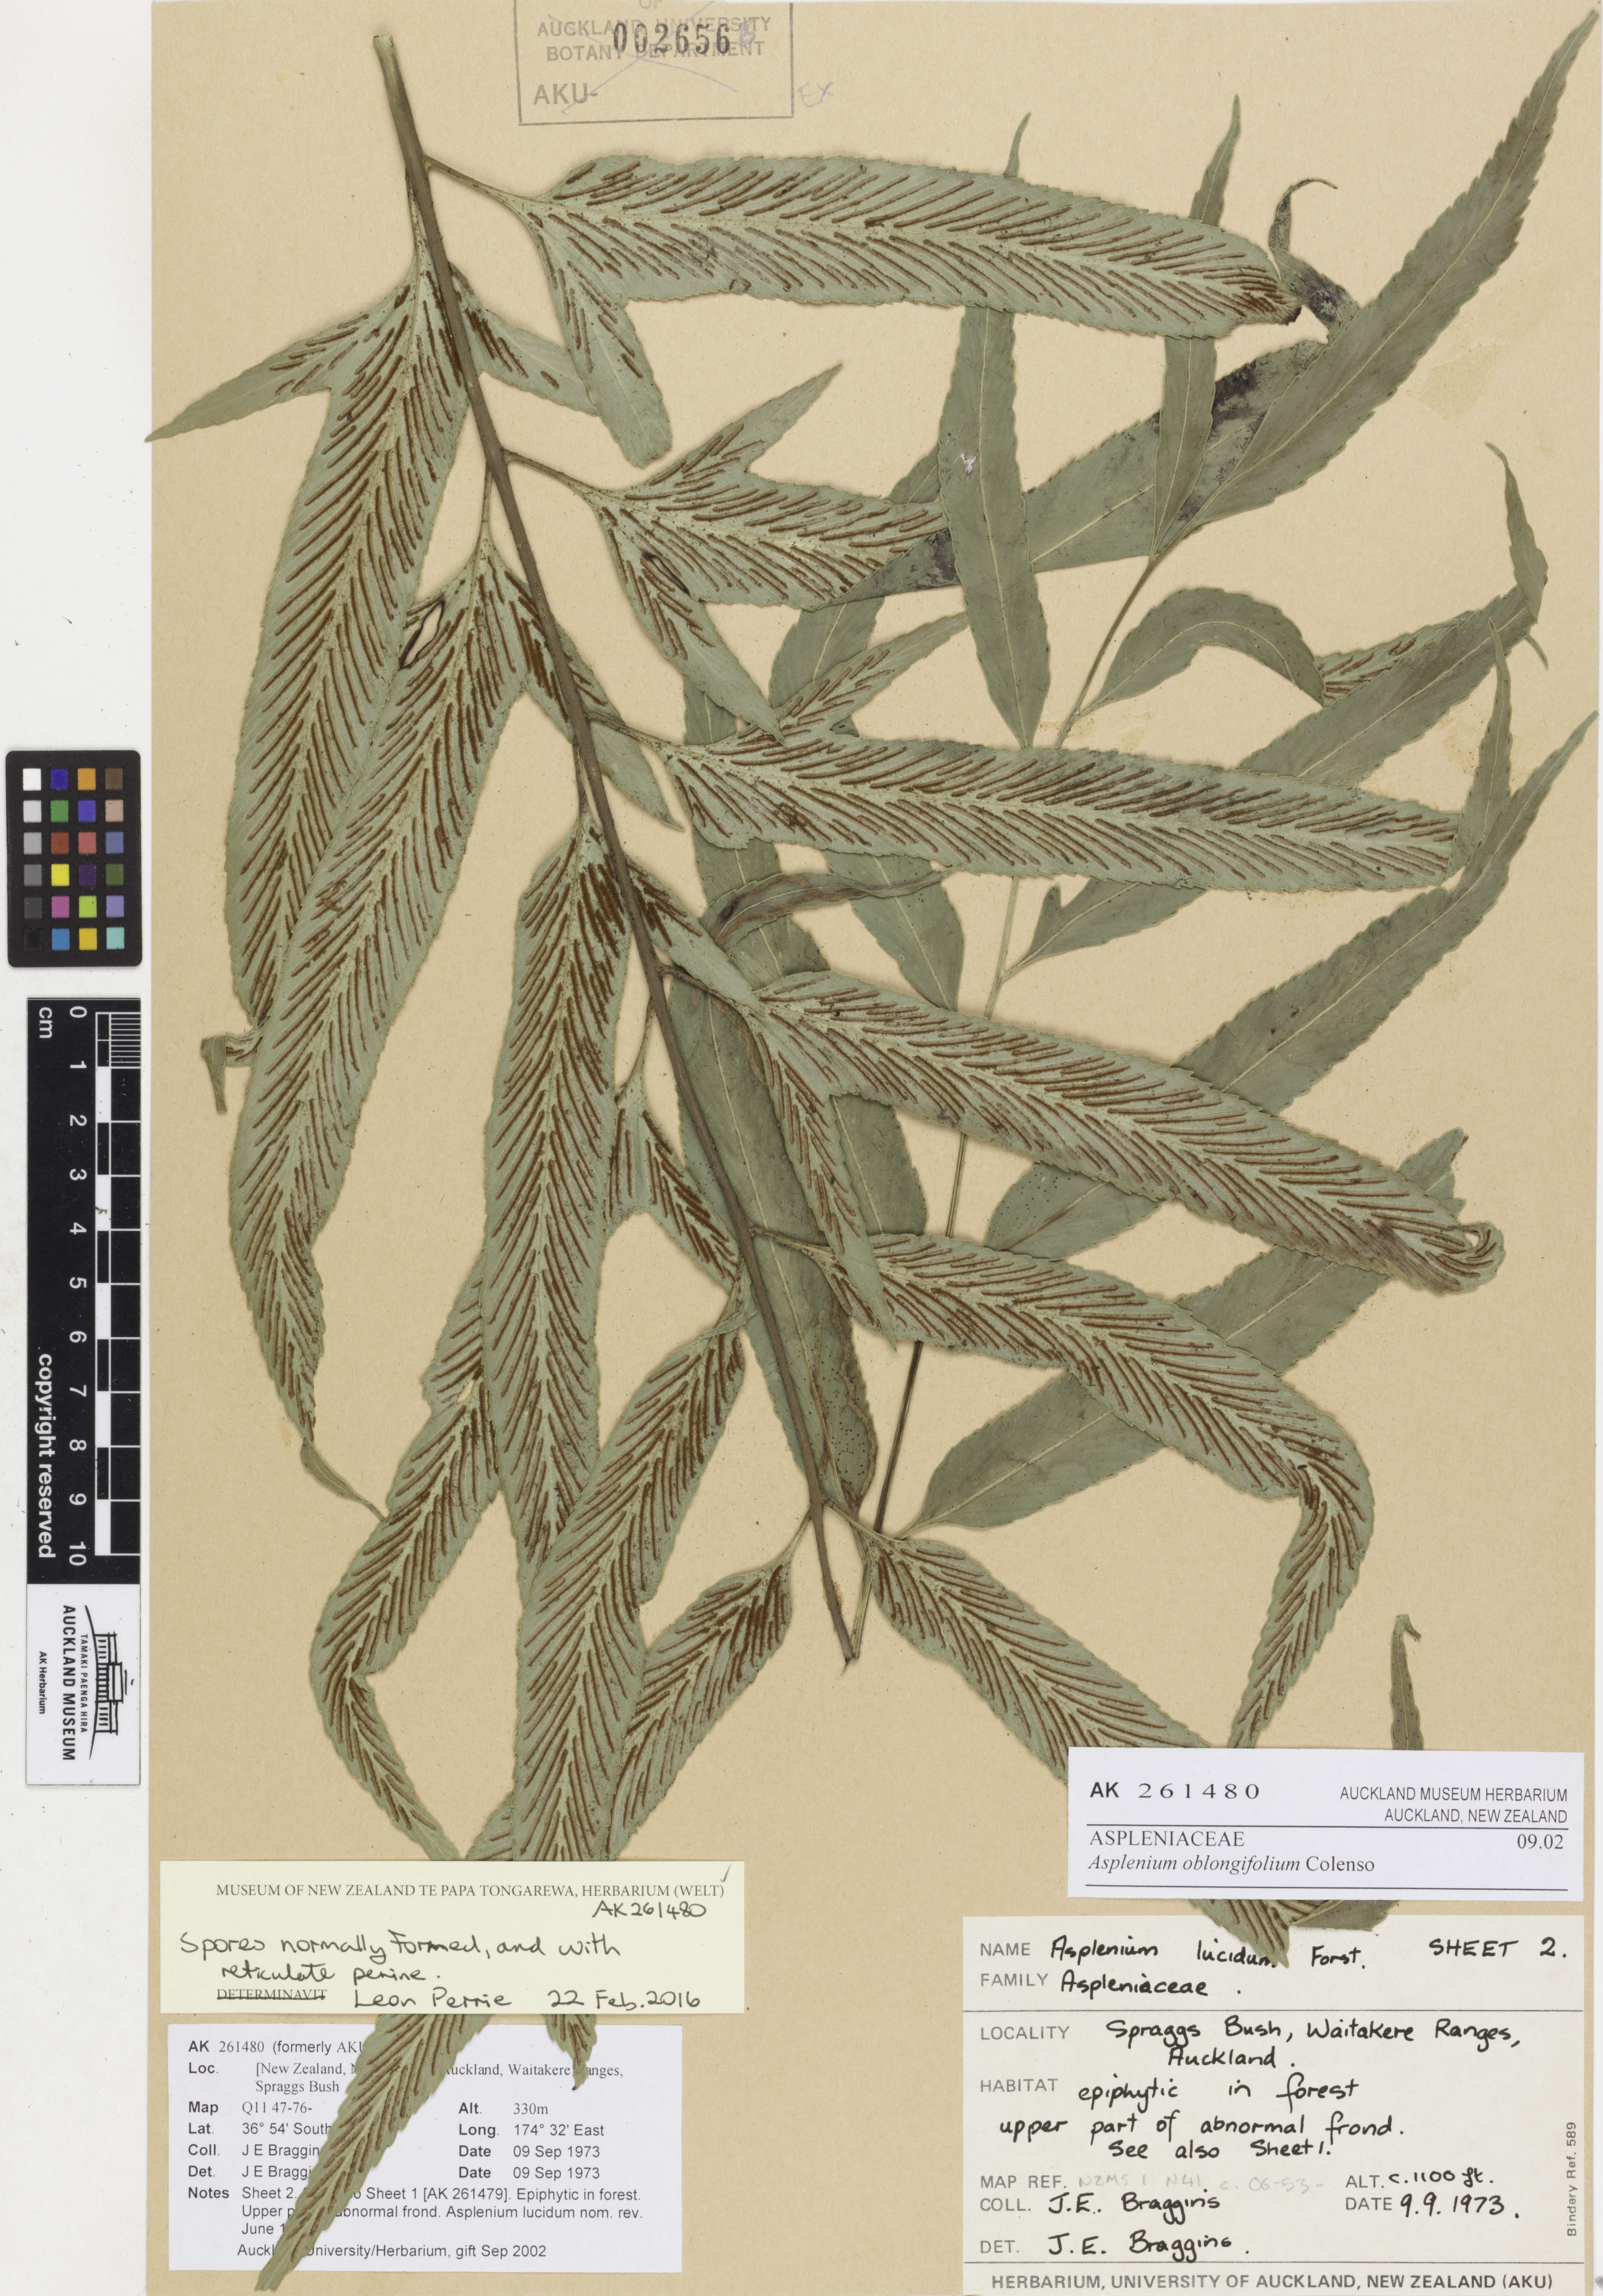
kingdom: Plantae
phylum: Tracheophyta
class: Polypodiopsida
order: Polypodiales
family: Aspleniaceae
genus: Asplenium
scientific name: Asplenium oblongifolium
